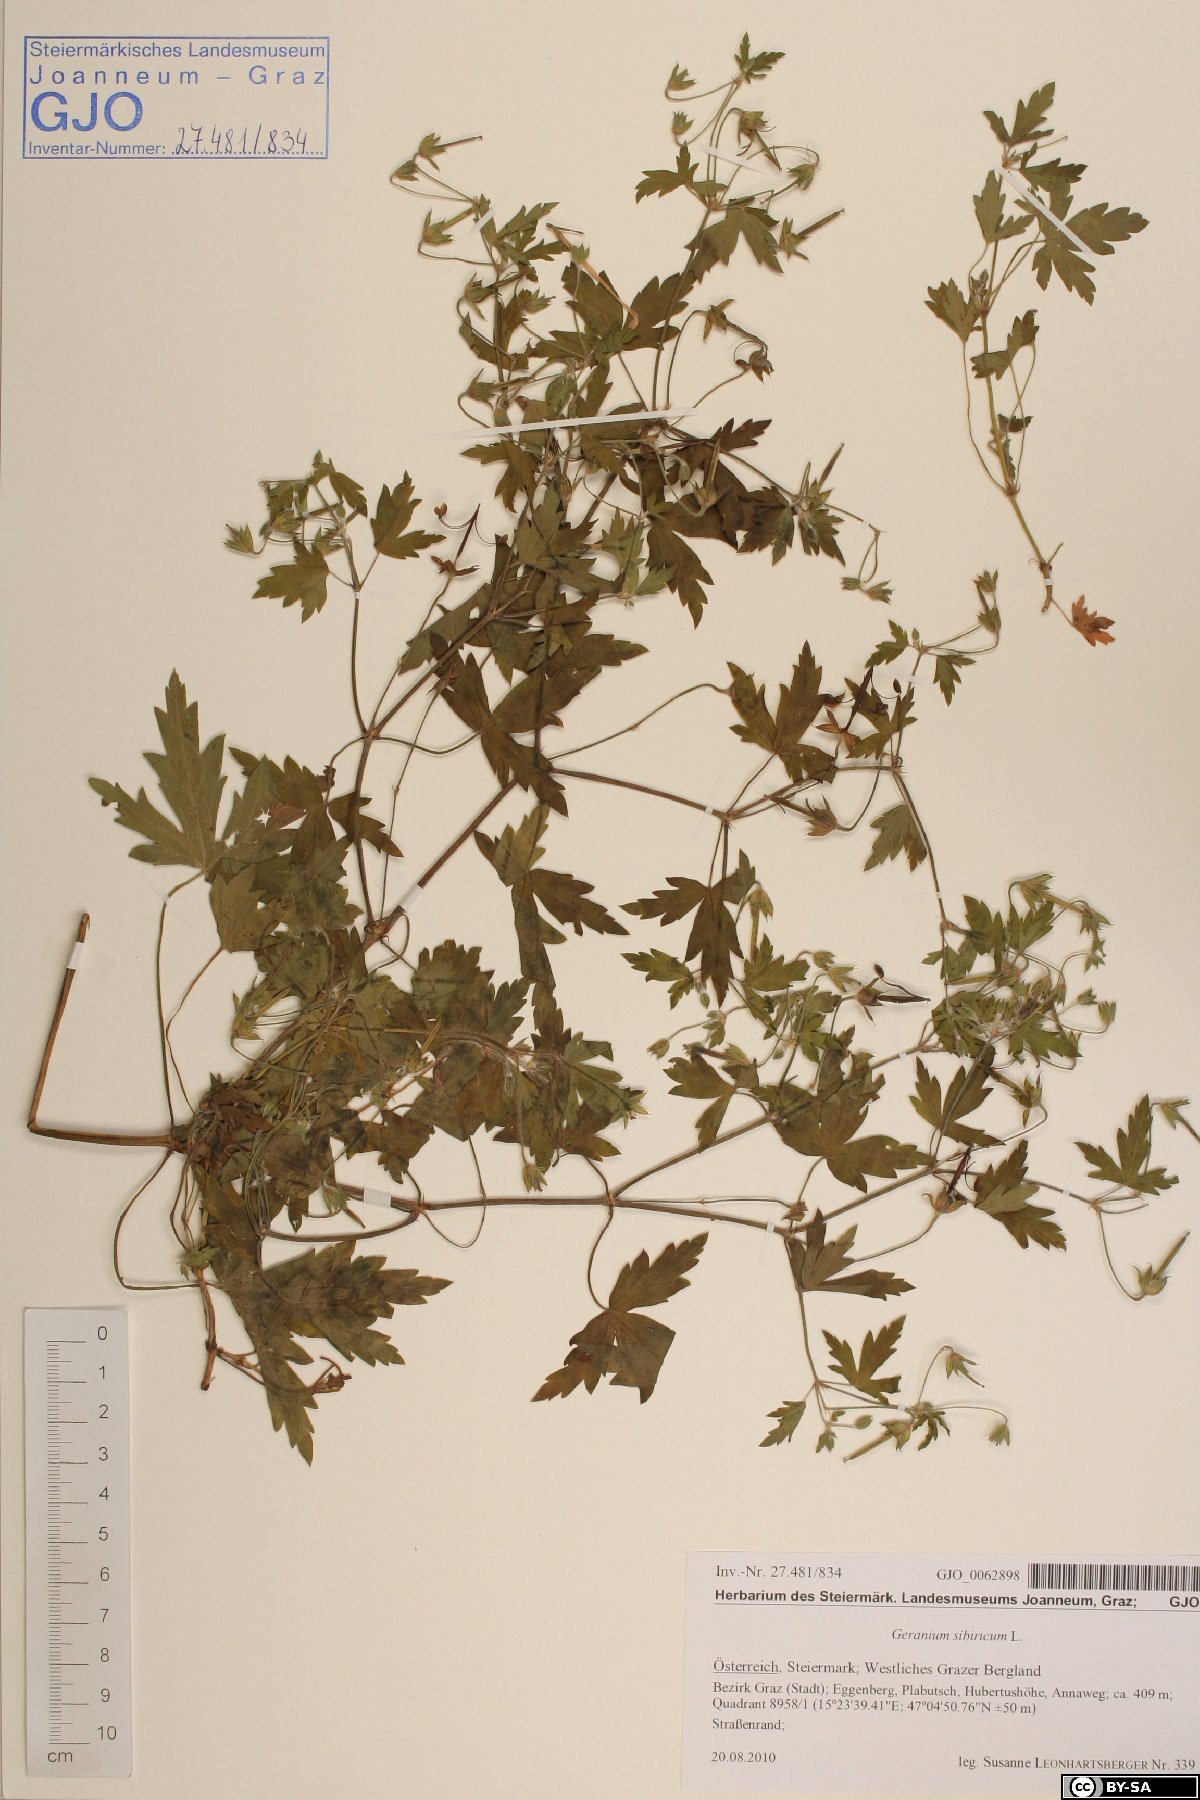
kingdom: Plantae
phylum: Tracheophyta
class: Magnoliopsida
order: Geraniales
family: Geraniaceae
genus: Geranium
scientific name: Geranium sibiricum
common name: Siberian crane's-bill
